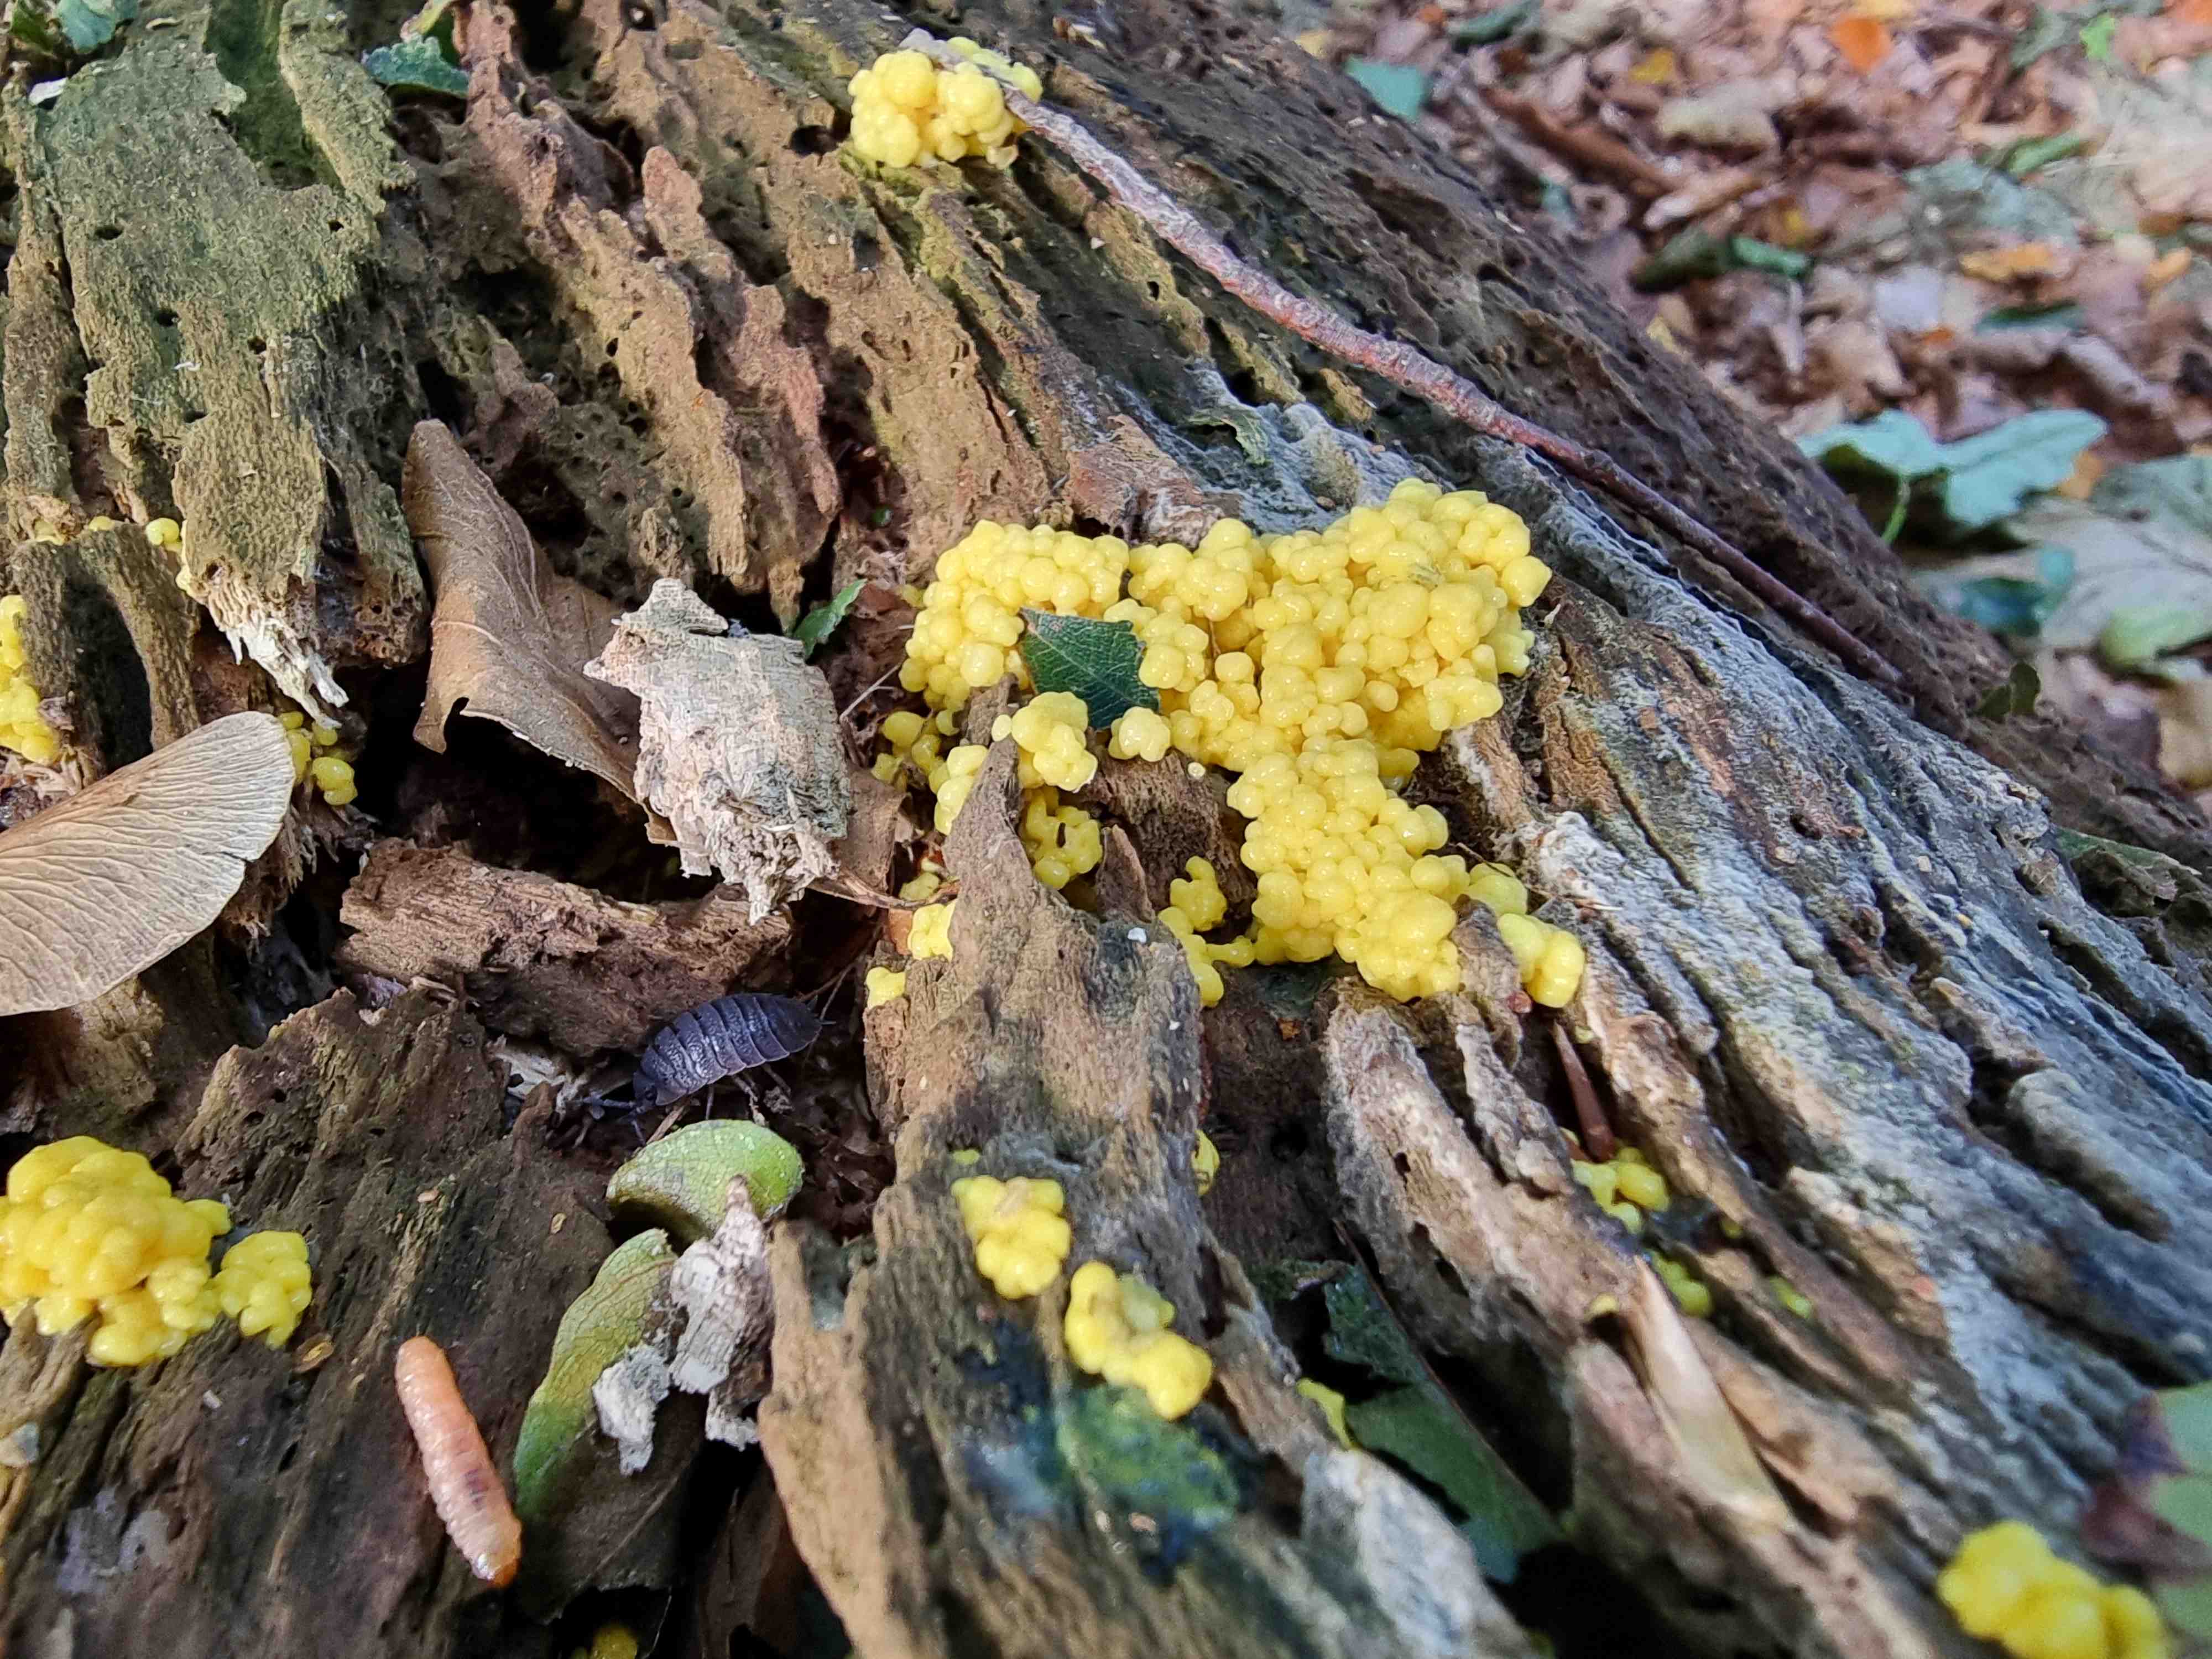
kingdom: Protozoa
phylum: Mycetozoa
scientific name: Mycetozoa
